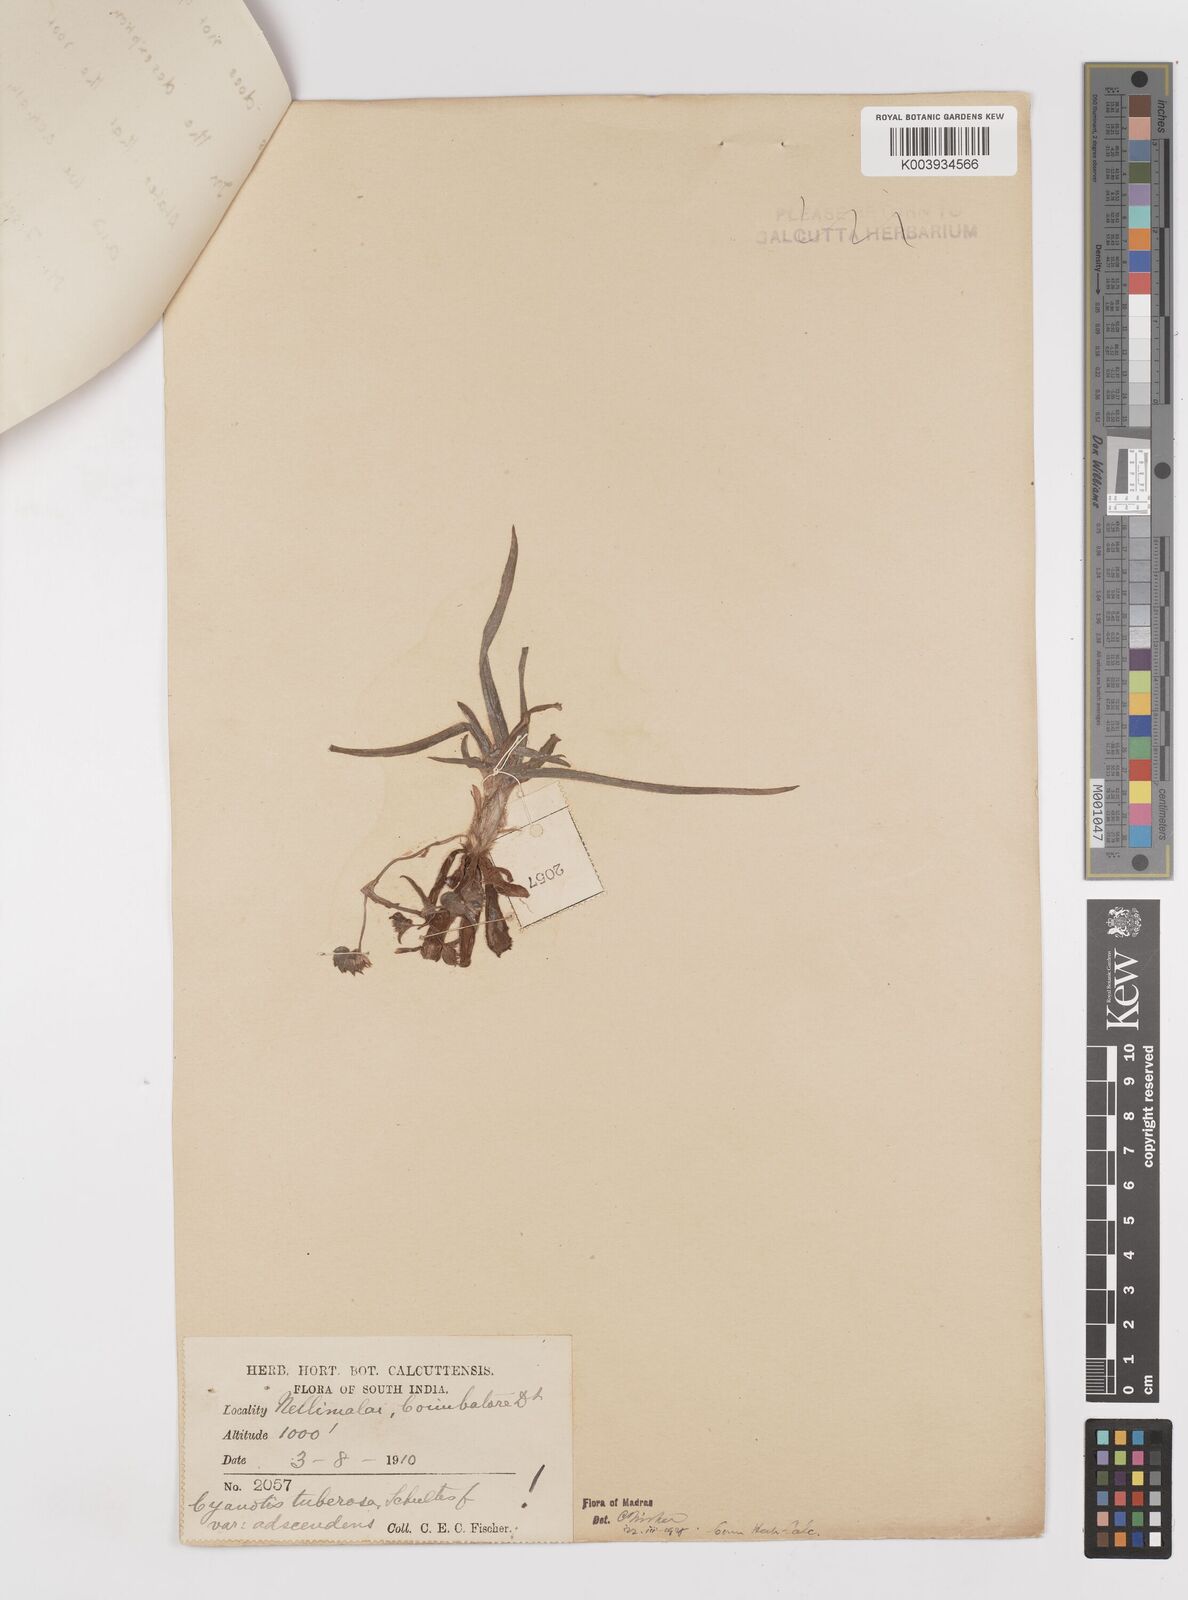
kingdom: Plantae
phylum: Tracheophyta
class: Liliopsida
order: Commelinales
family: Commelinaceae
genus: Cyanotis
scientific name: Cyanotis tuberosa
